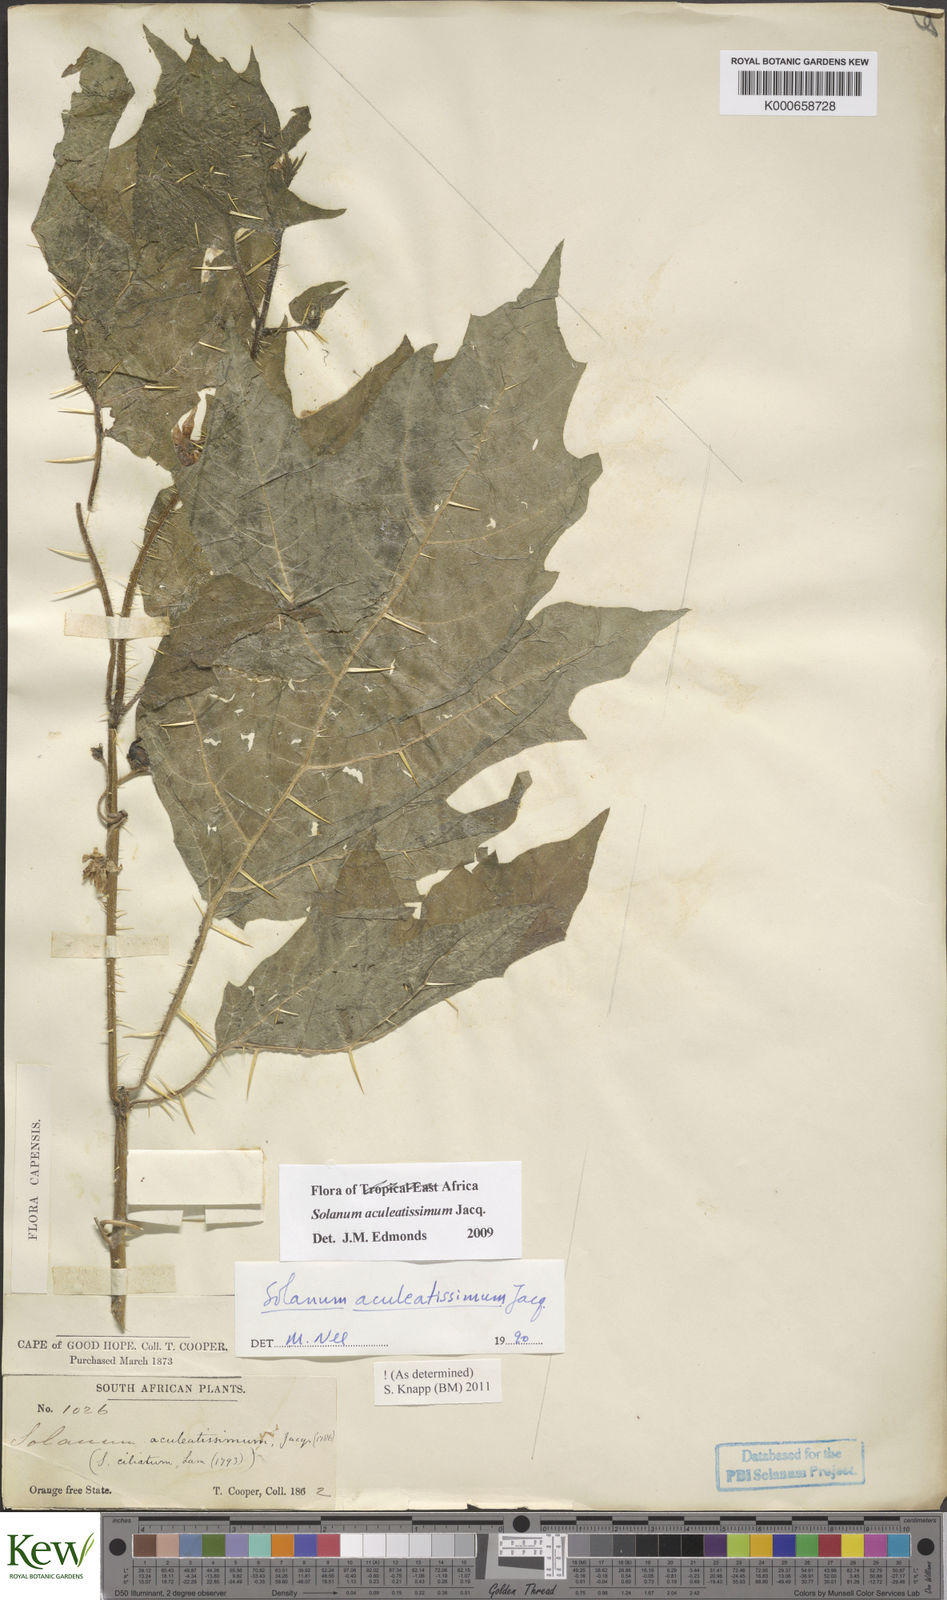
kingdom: Plantae
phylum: Tracheophyta
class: Magnoliopsida
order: Solanales
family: Solanaceae
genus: Solanum
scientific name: Solanum aculeatissimum
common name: Dutch eggplant
